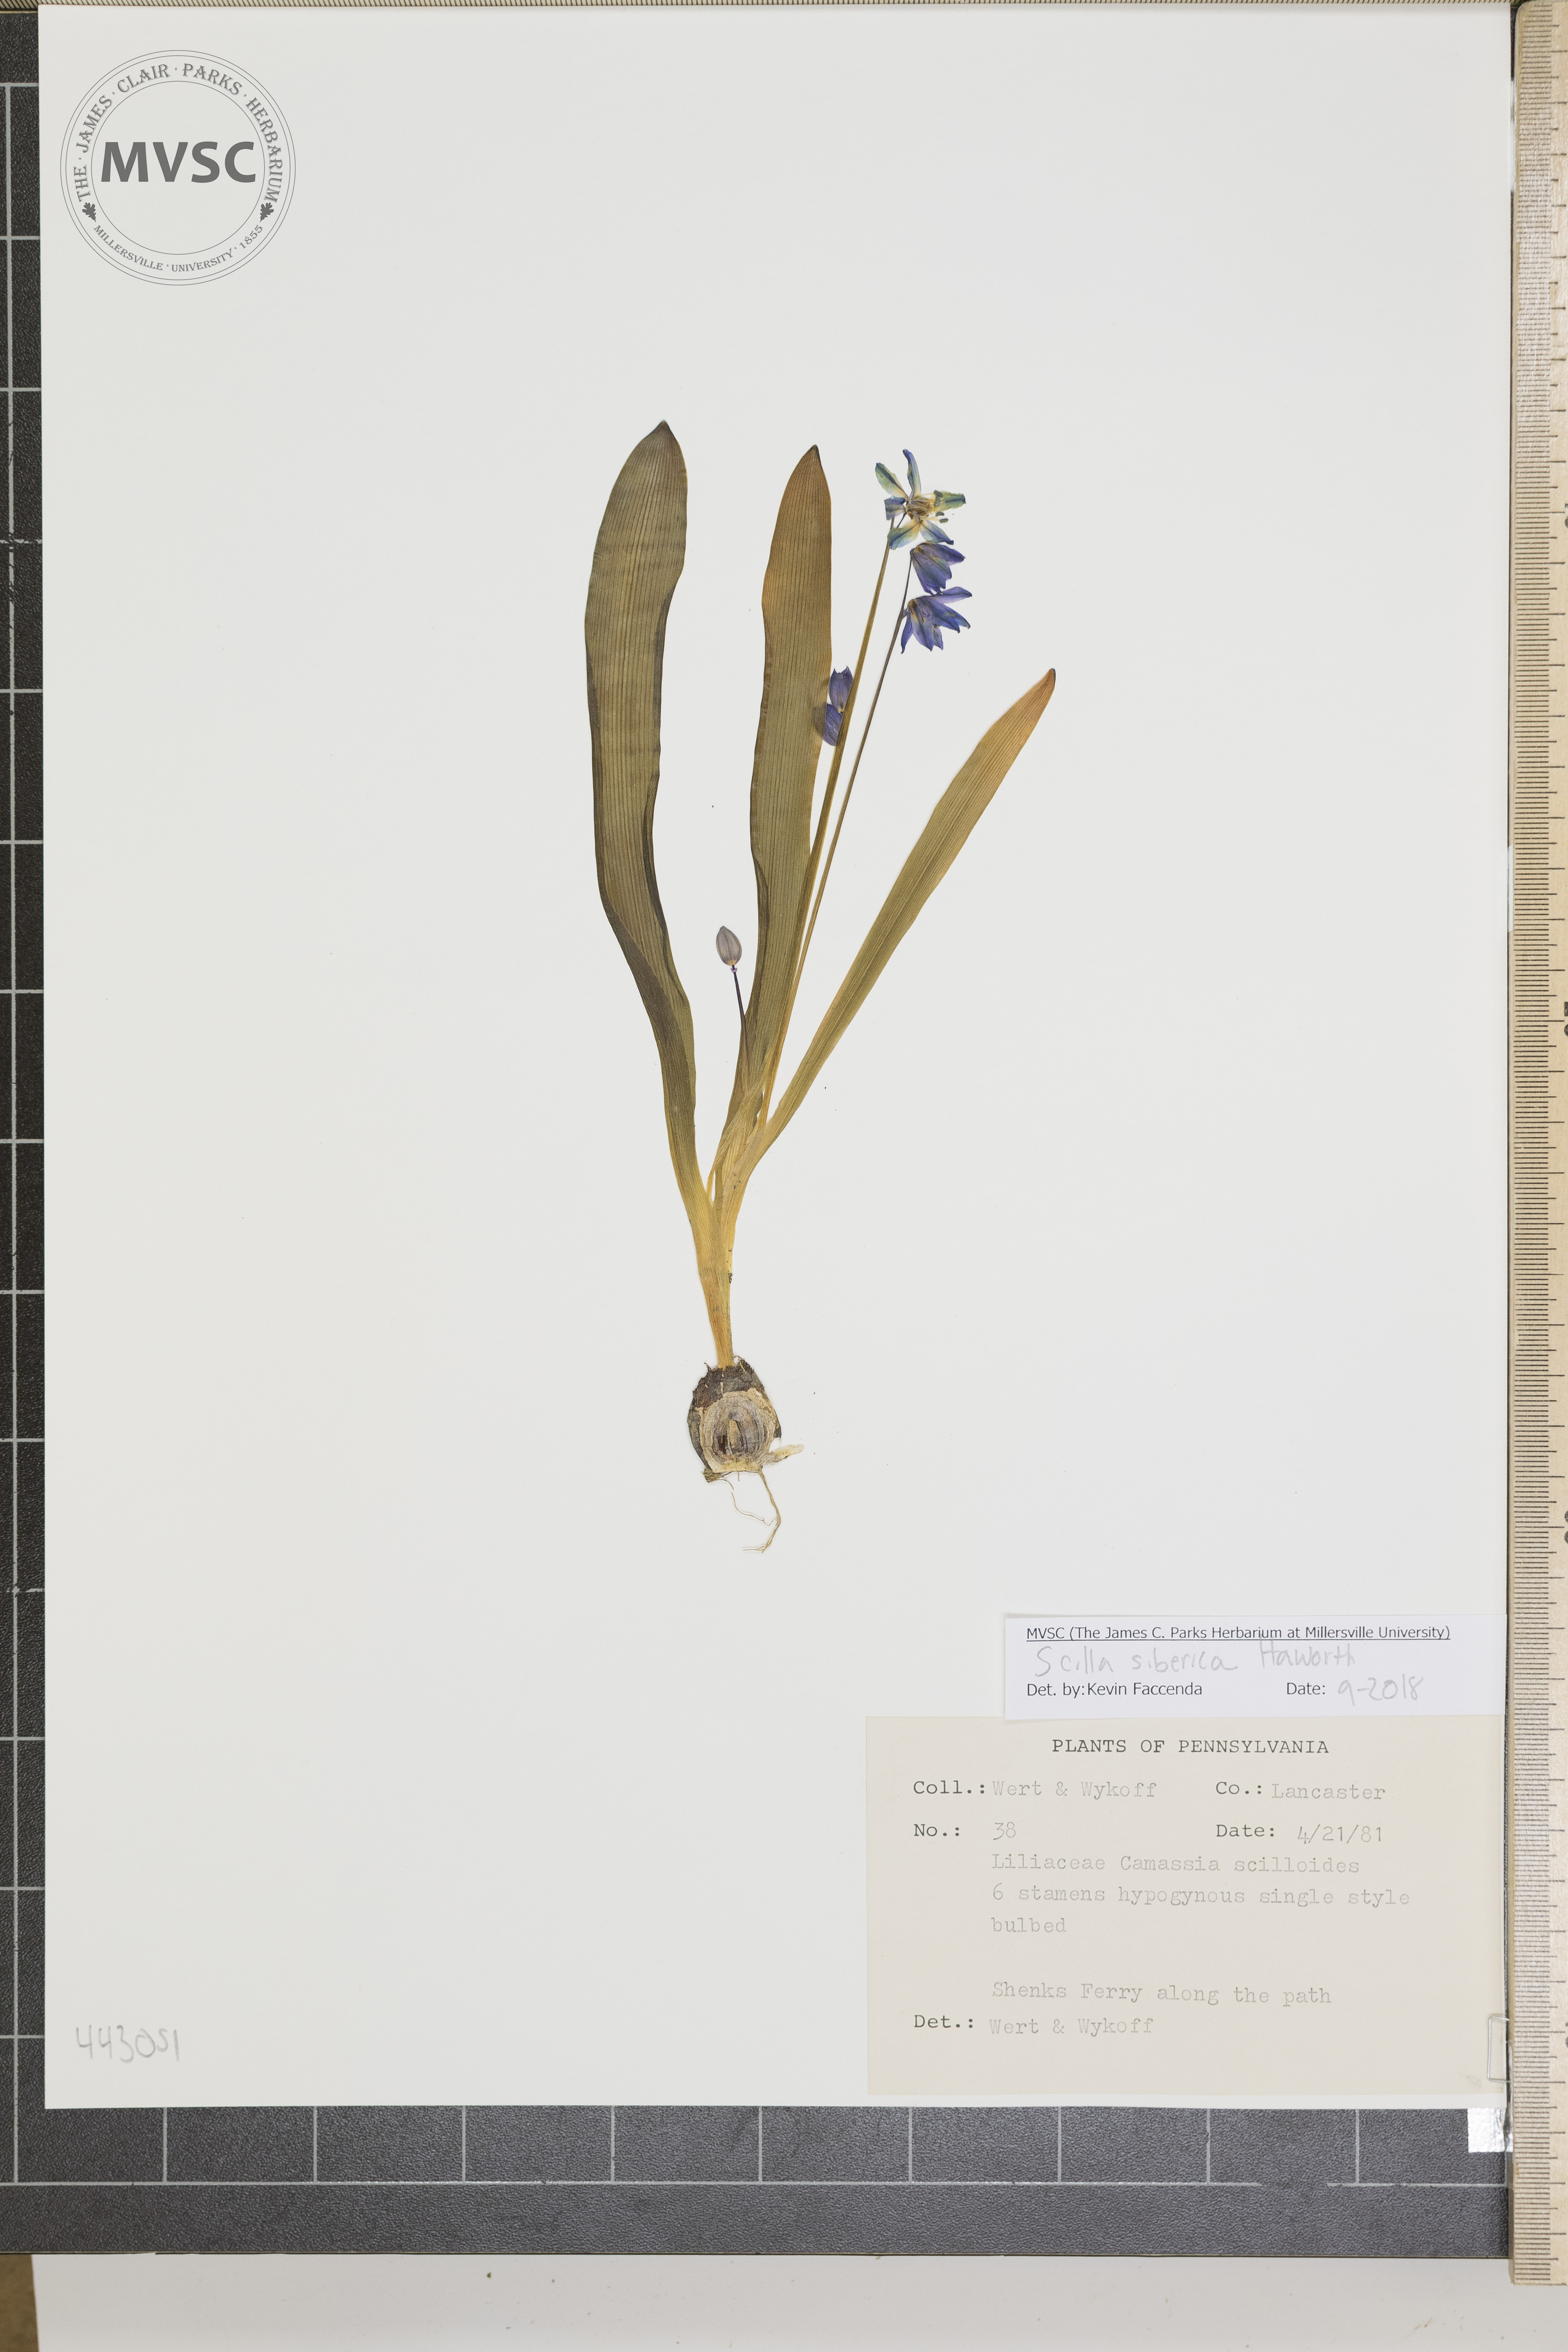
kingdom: Plantae
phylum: Tracheophyta
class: Liliopsida
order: Asparagales
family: Asparagaceae
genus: Scilla
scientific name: Scilla siberica
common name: Siberian squill
